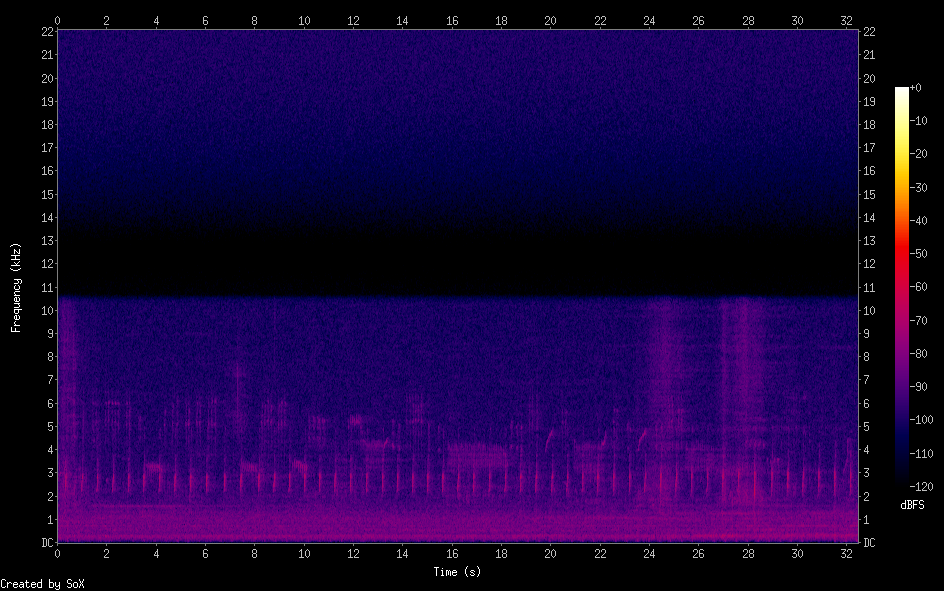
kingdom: Animalia
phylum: Chordata
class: Aves
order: Gruiformes
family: Rallidae
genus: Porzana
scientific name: Porzana porzana
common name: Spotted crake
